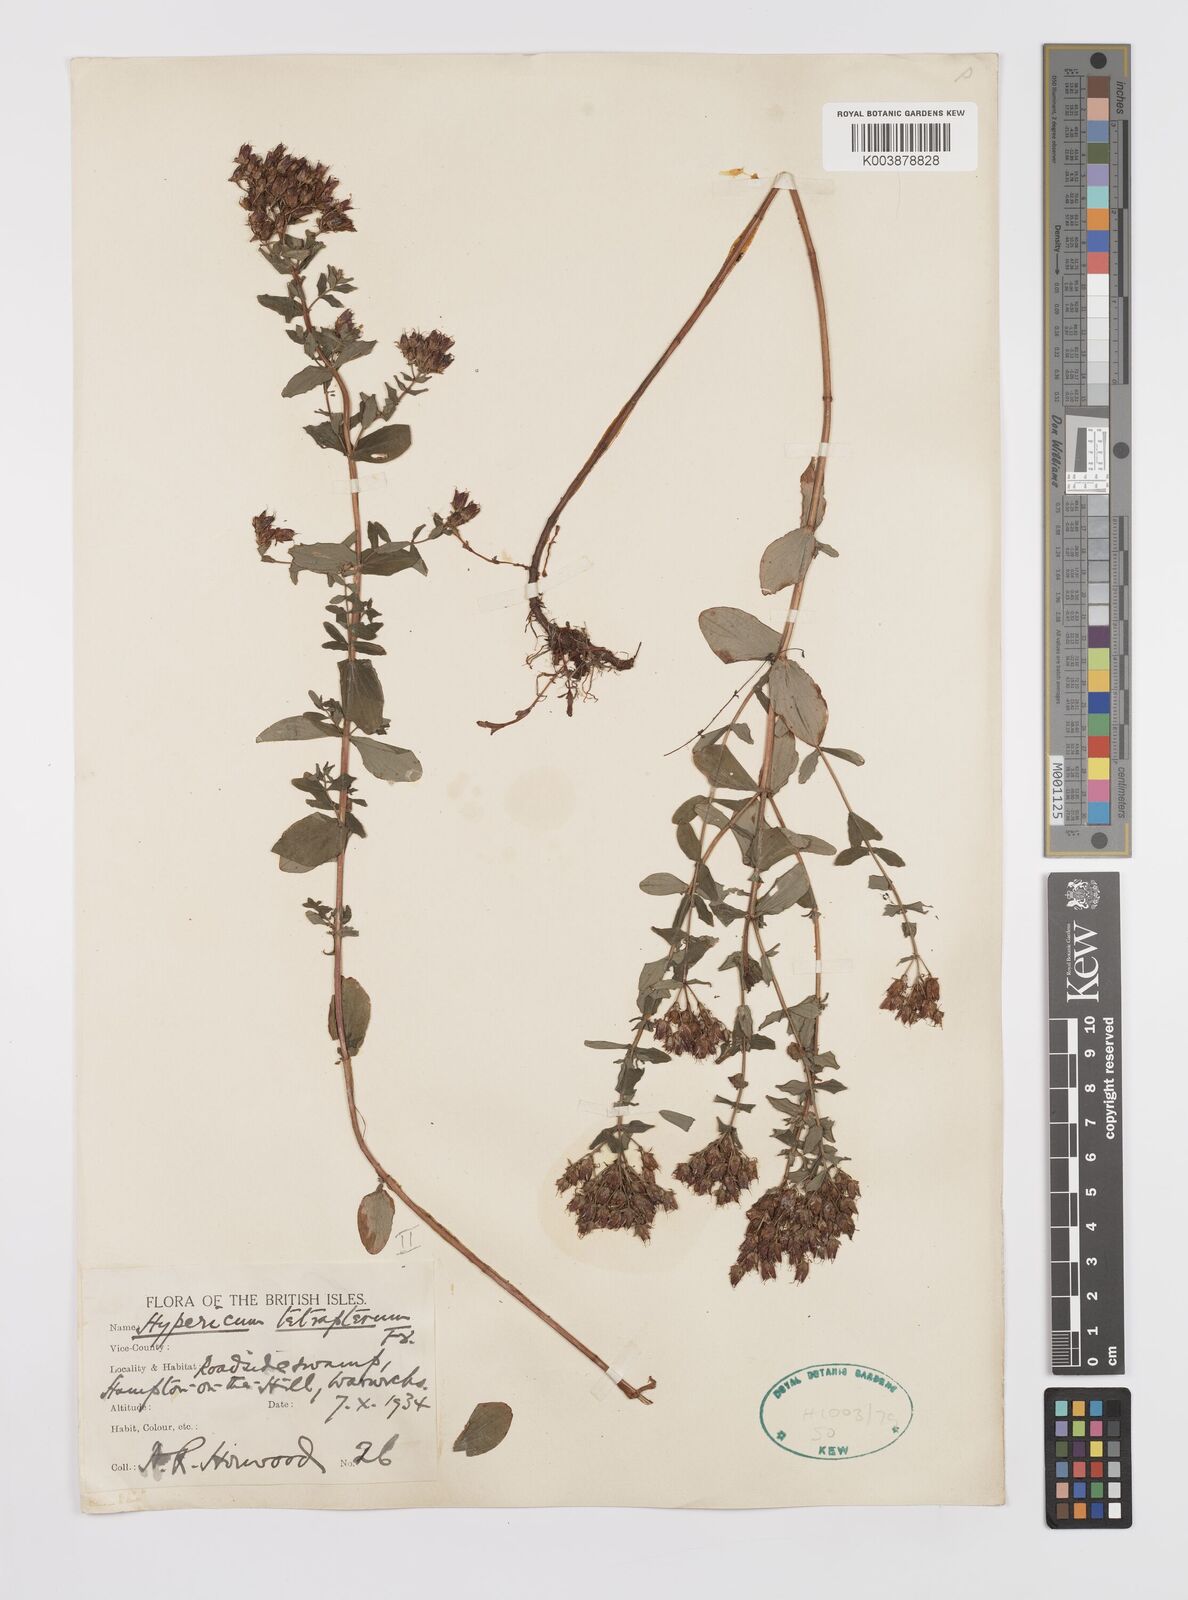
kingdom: Plantae
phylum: Tracheophyta
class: Magnoliopsida
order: Malpighiales
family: Hypericaceae
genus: Hypericum
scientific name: Hypericum tetrapterum
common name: Square-stalked st. john's-wort
